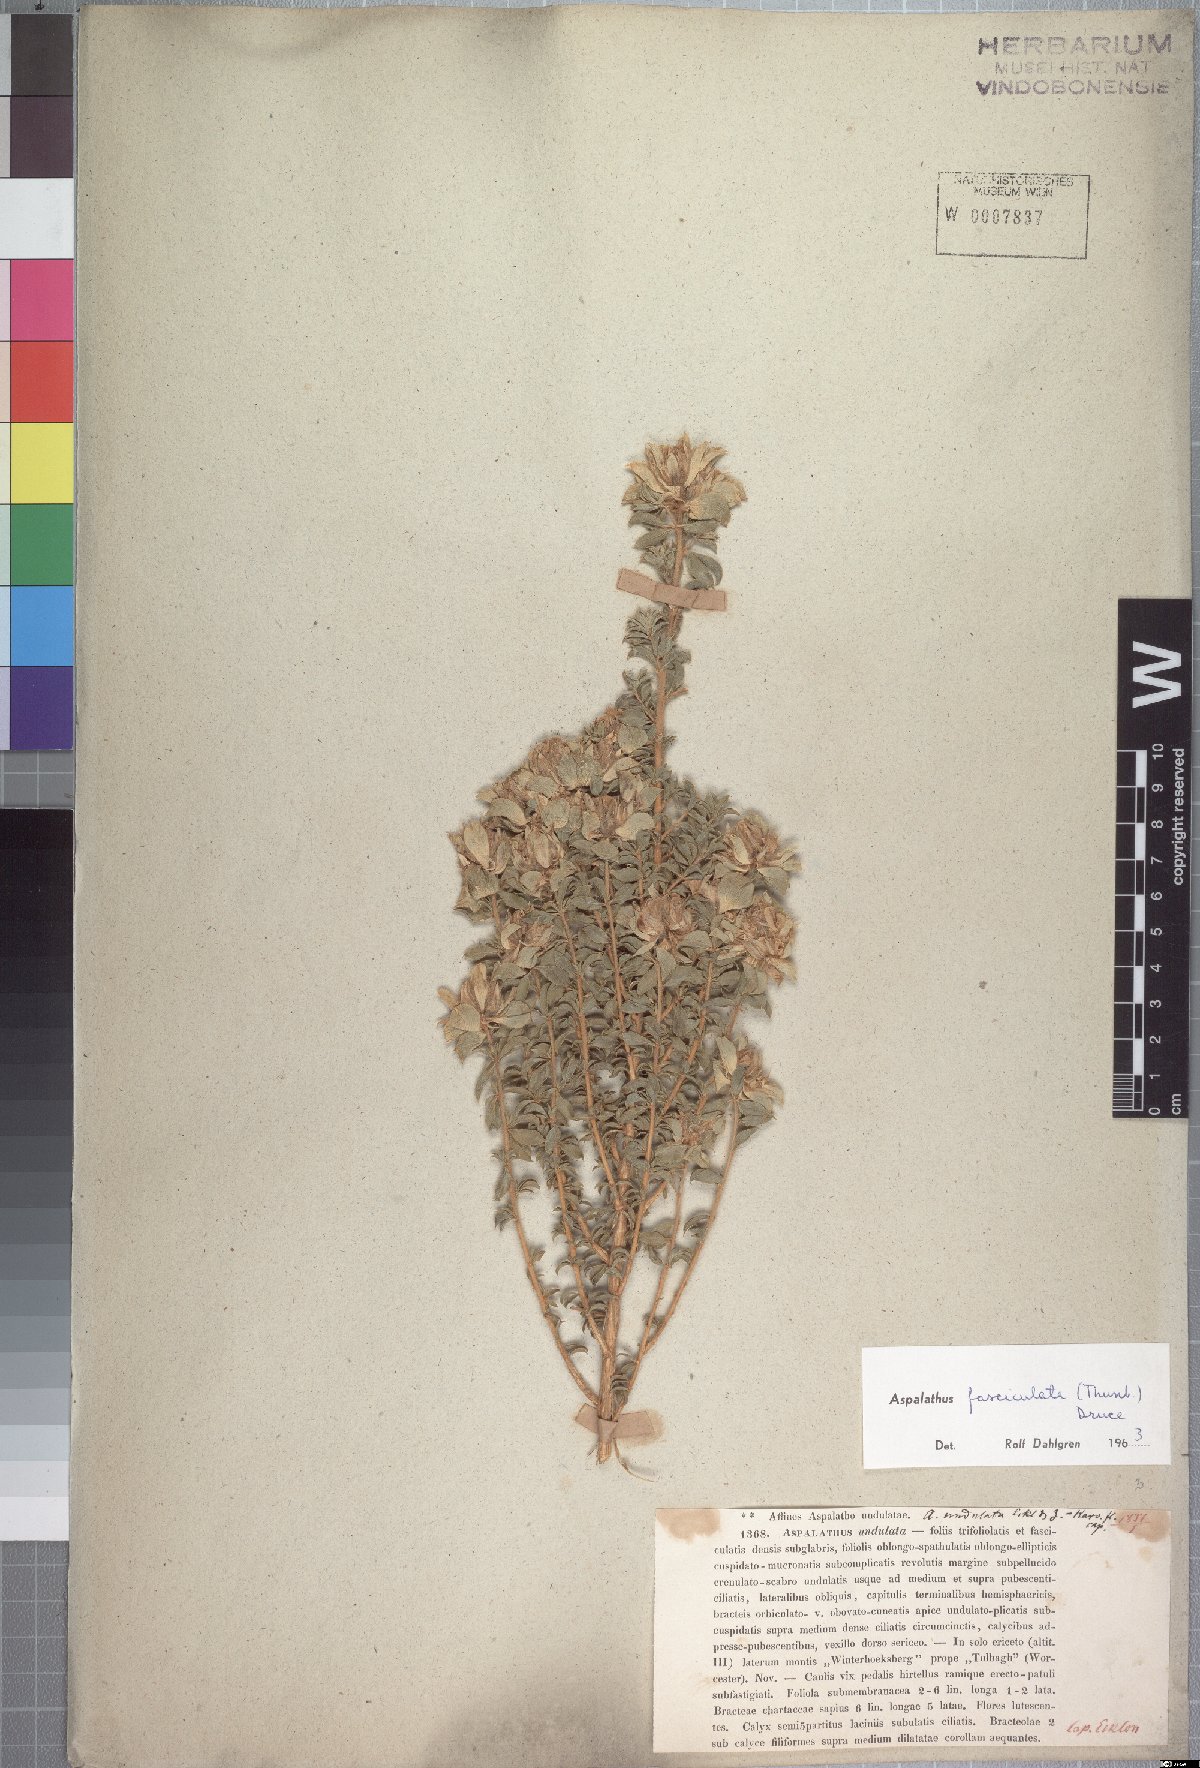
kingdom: Plantae
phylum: Tracheophyta
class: Magnoliopsida
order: Fabales
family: Fabaceae
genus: Aspalathus
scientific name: Aspalathus fasciculata
